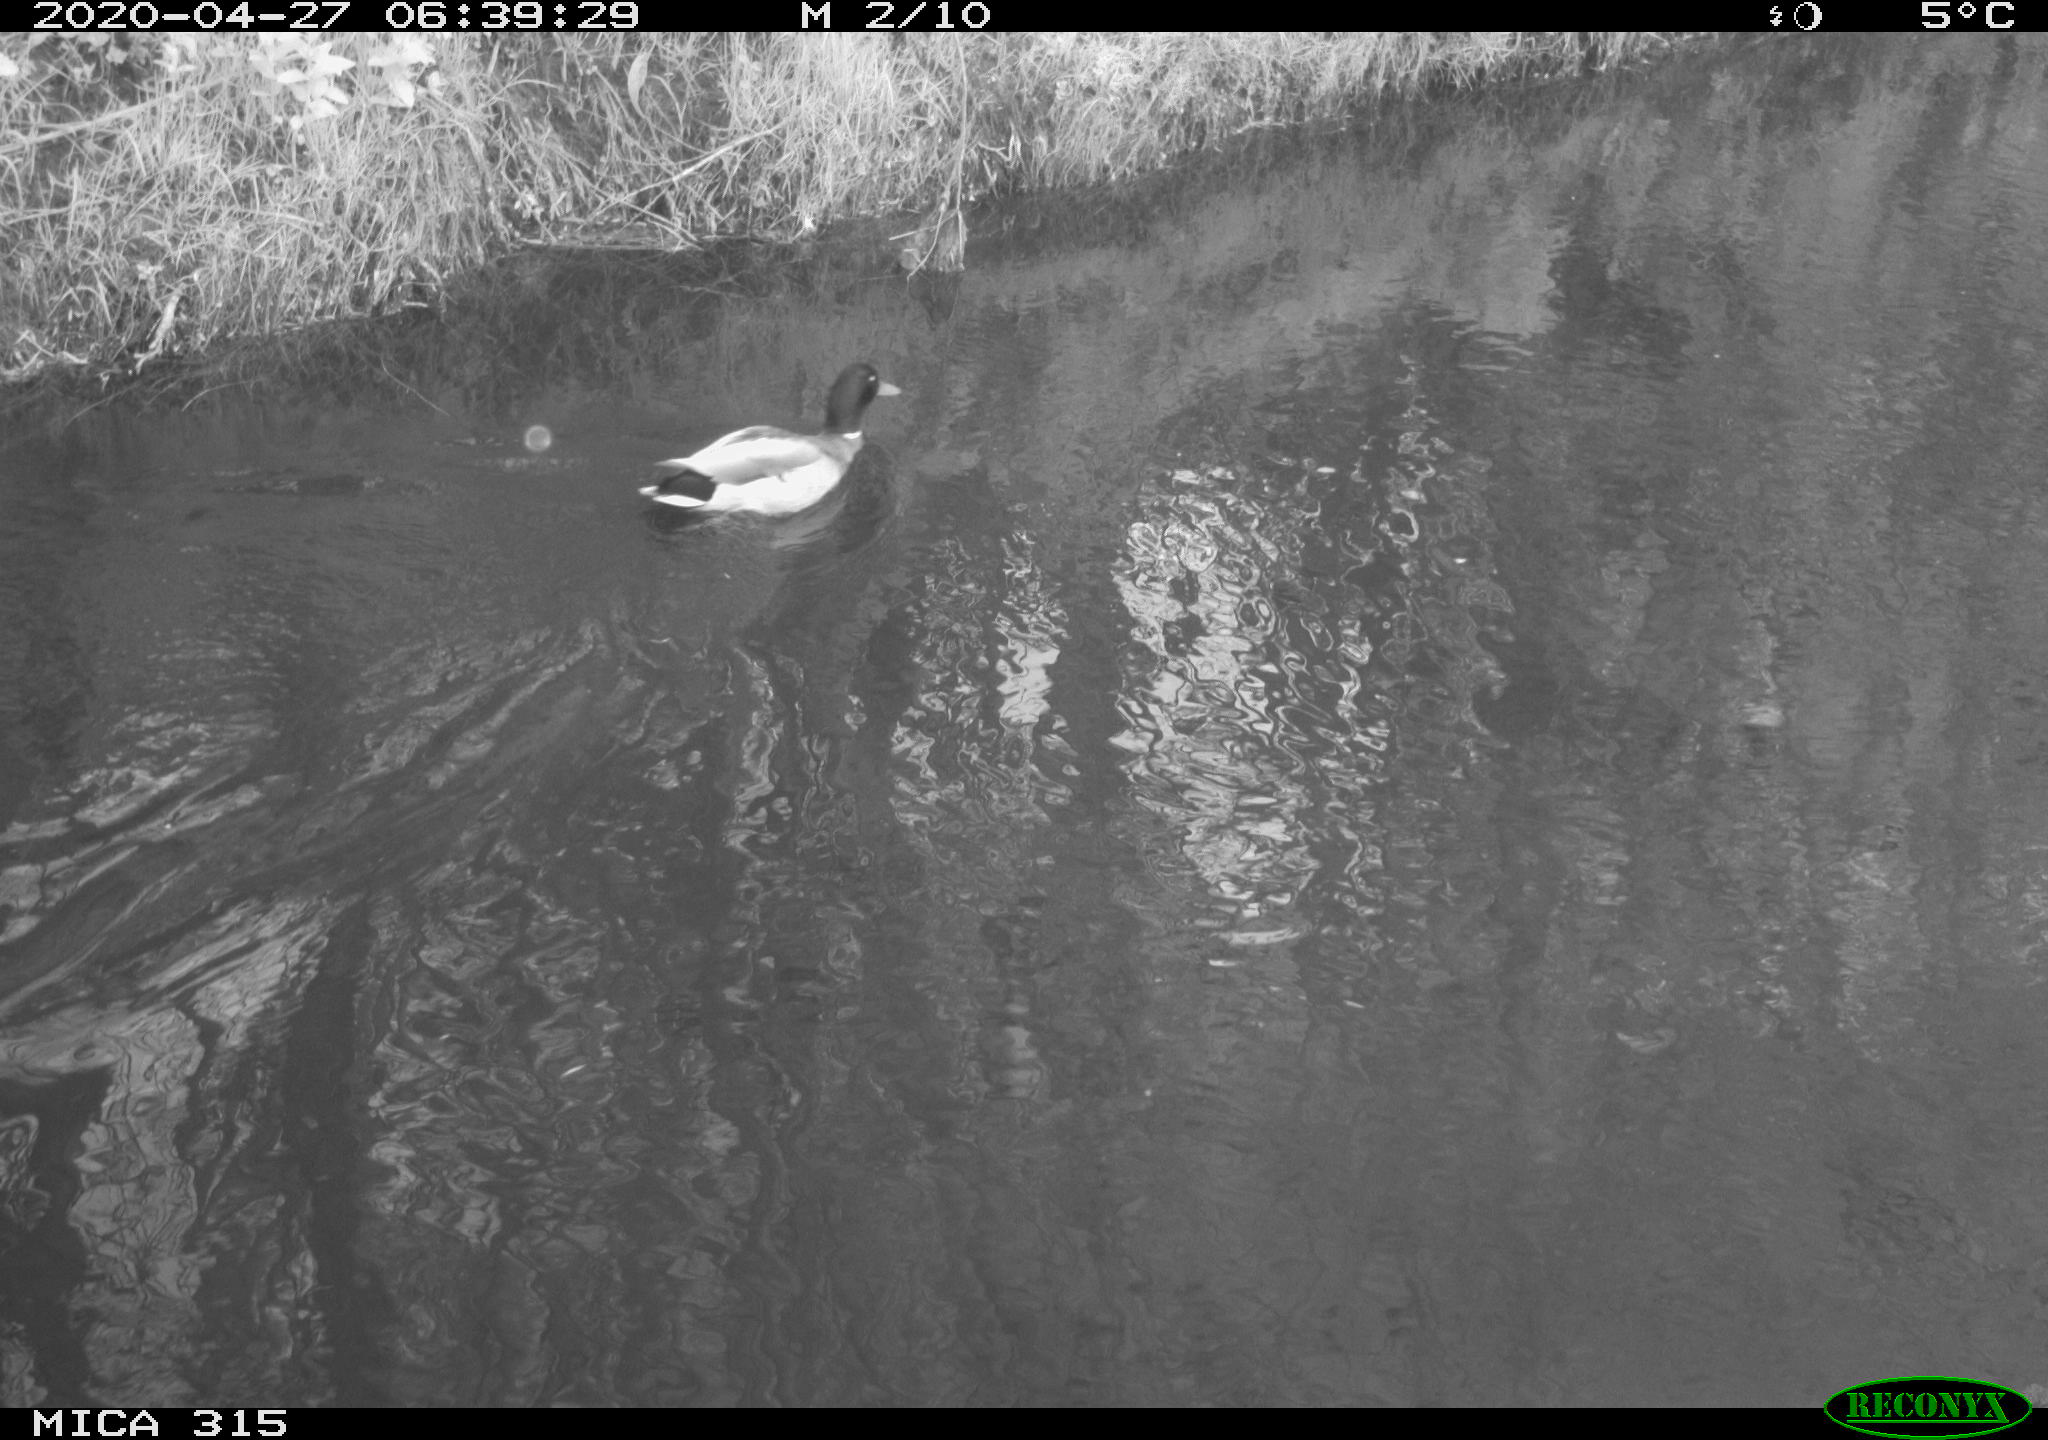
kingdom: Animalia
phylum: Chordata
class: Aves
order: Anseriformes
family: Anatidae
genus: Anas
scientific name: Anas platyrhynchos
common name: Mallard
